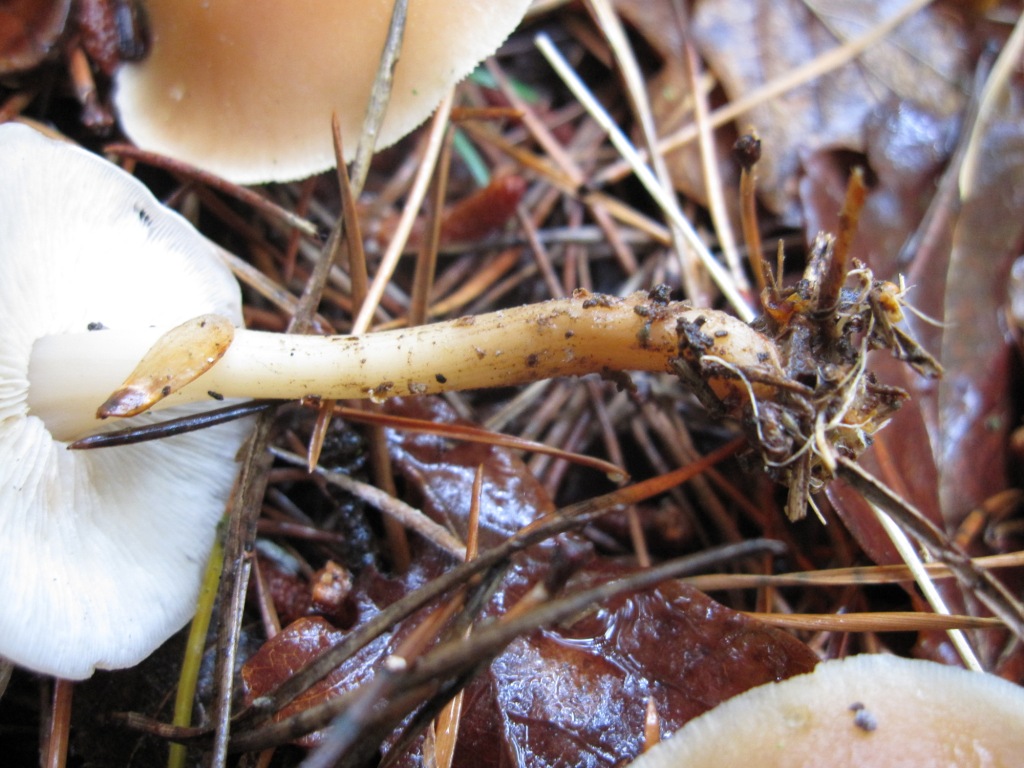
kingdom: Fungi
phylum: Basidiomycota
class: Agaricomycetes
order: Agaricales
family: Omphalotaceae
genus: Gymnopus
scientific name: Gymnopus dryophilus
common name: løv-fladhat
